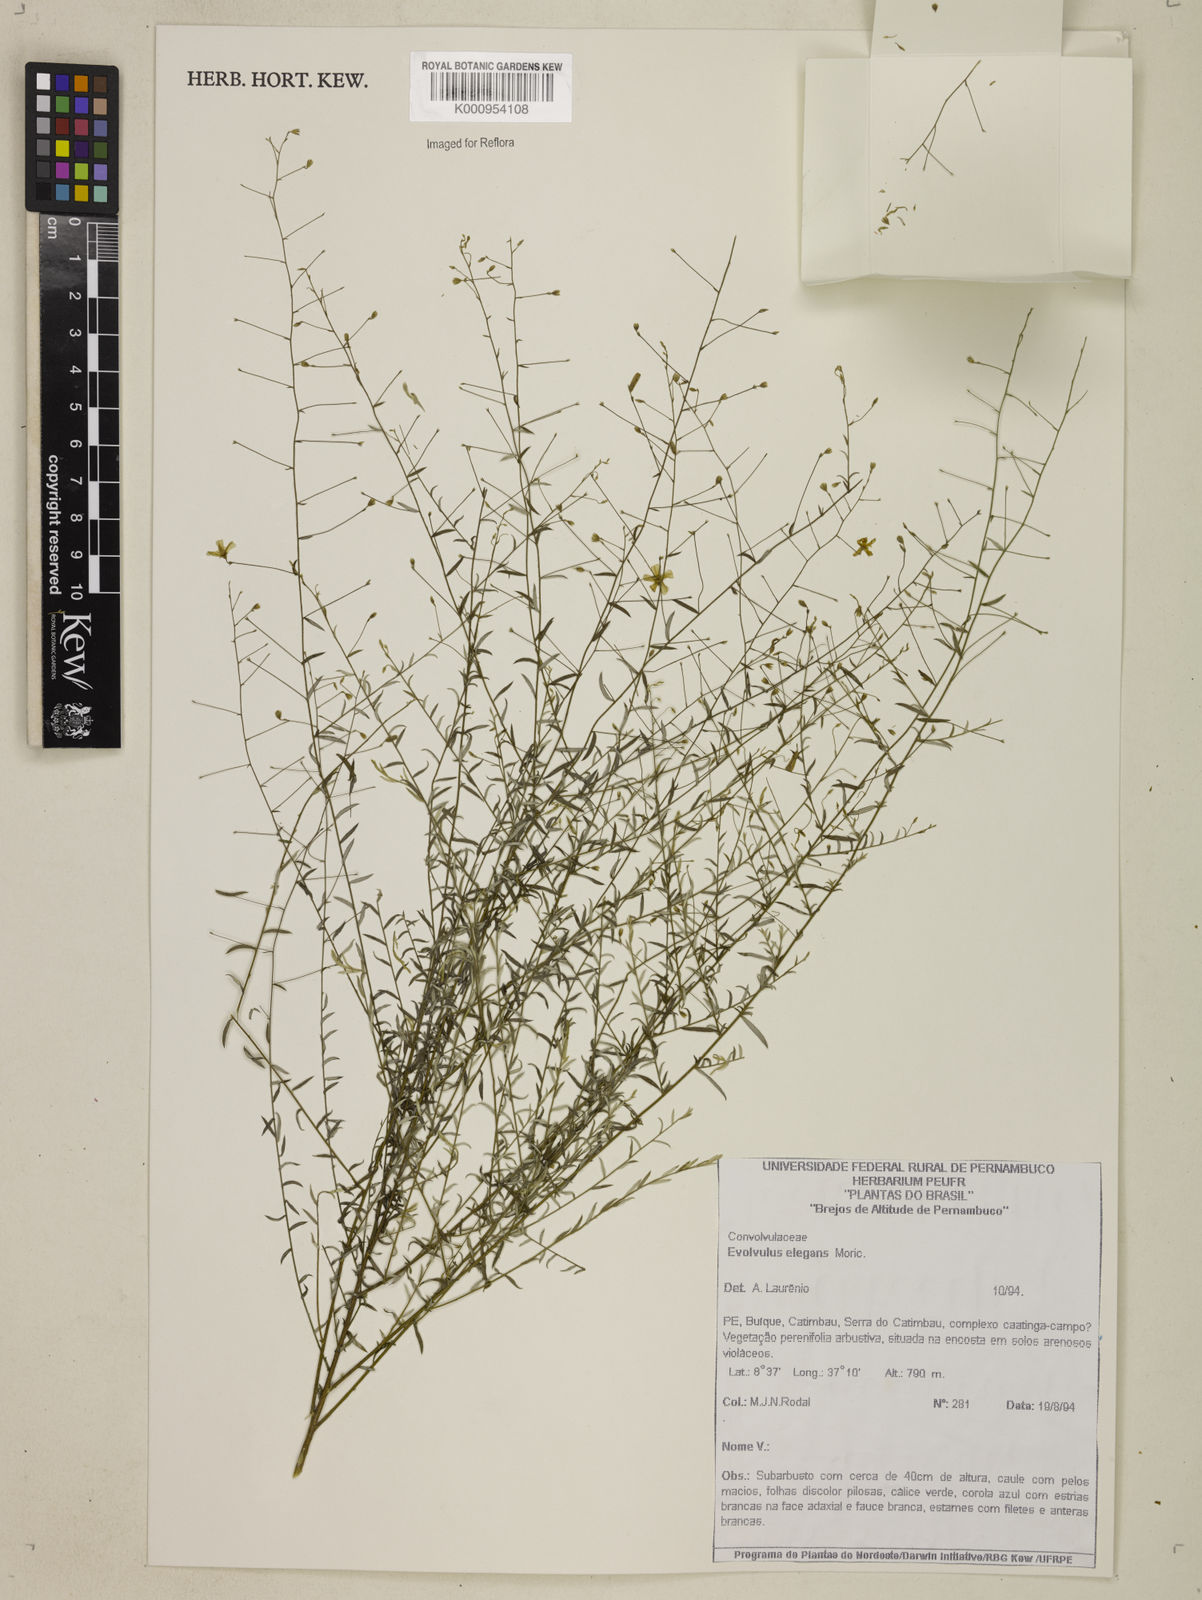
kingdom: Plantae
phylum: Tracheophyta
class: Magnoliopsida
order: Solanales
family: Convolvulaceae
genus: Evolvulus
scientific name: Evolvulus elegans
